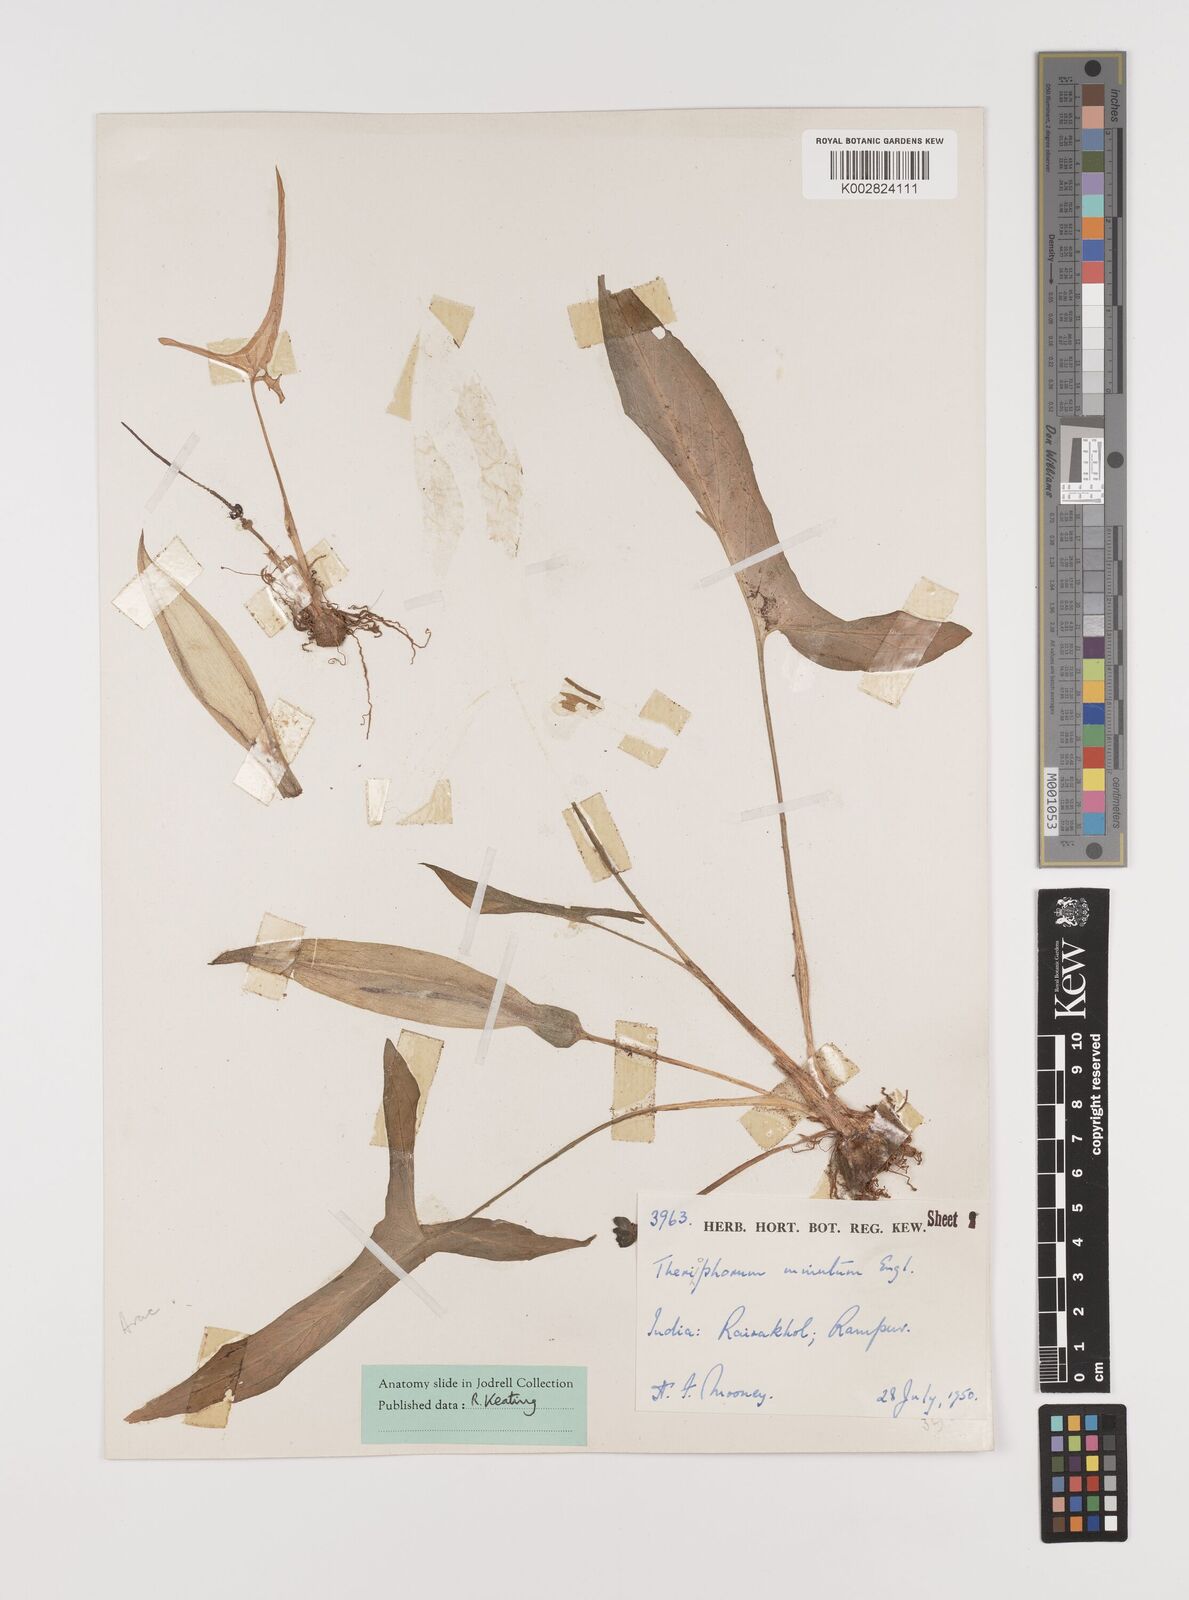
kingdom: Plantae
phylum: Tracheophyta
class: Liliopsida
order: Alismatales
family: Araceae
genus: Theriophonum
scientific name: Theriophonum minutum
